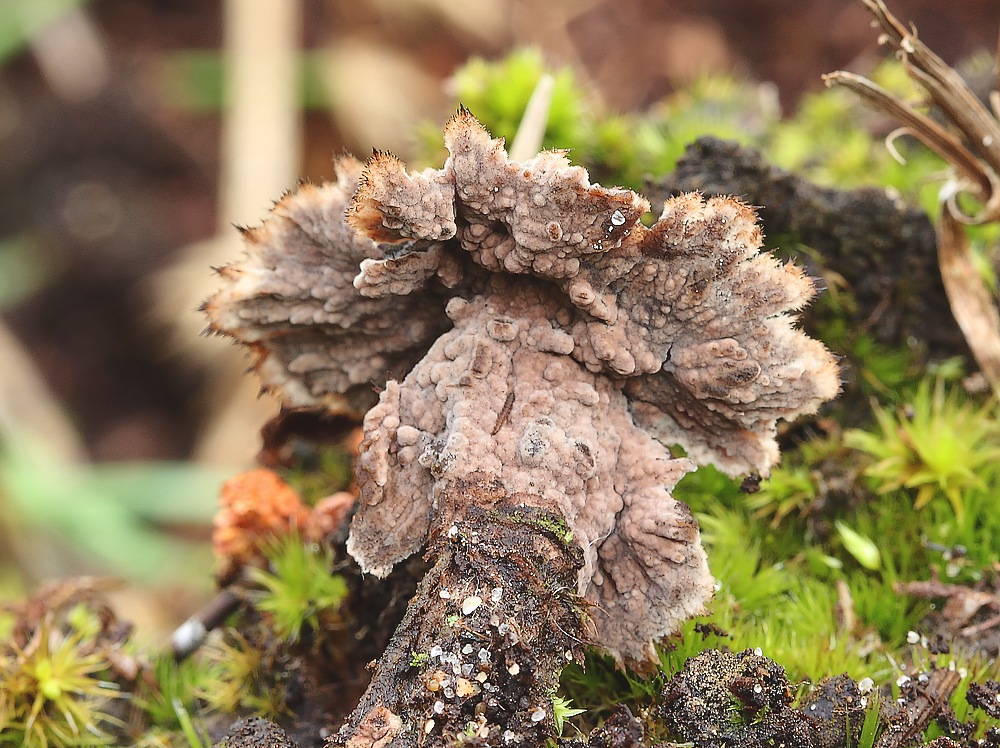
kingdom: Fungi
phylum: Basidiomycota
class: Agaricomycetes
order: Thelephorales
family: Thelephoraceae
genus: Thelephora
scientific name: Thelephora terrestris
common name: fliget frynsesvamp
